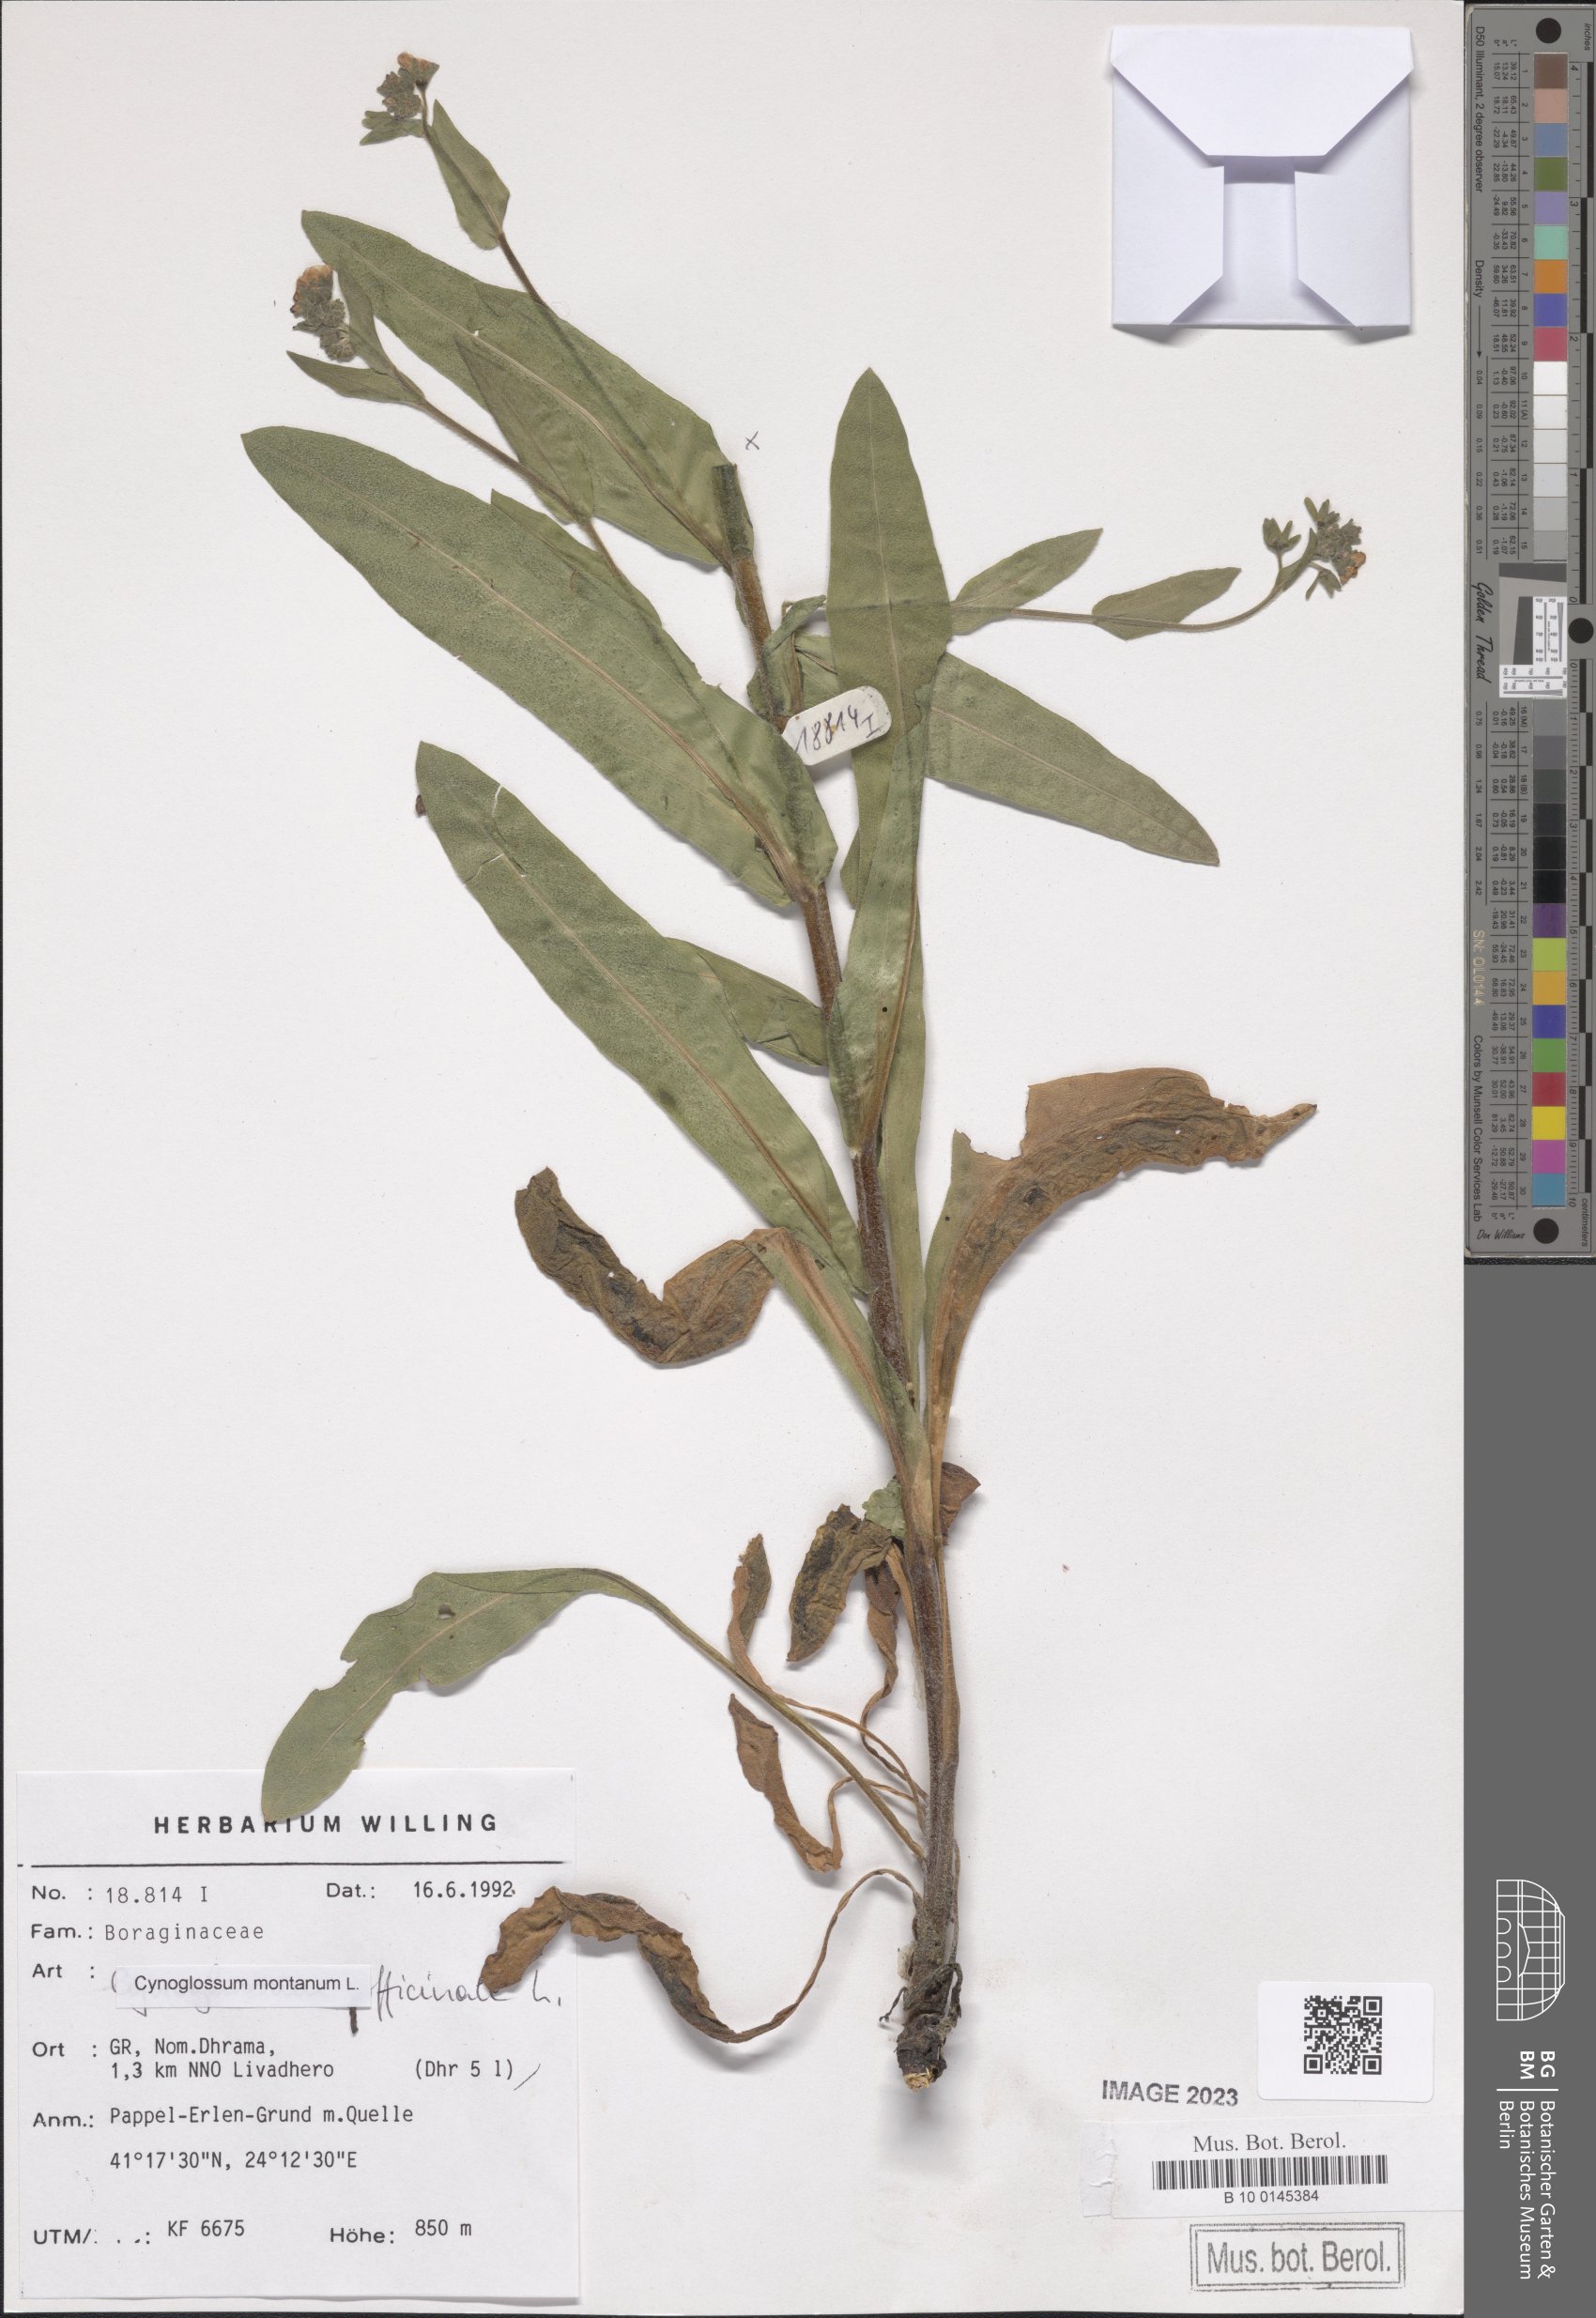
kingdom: Plantae
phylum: Tracheophyta
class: Magnoliopsida
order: Boraginales
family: Boraginaceae
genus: Cynoglossum
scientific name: Cynoglossum montanum
